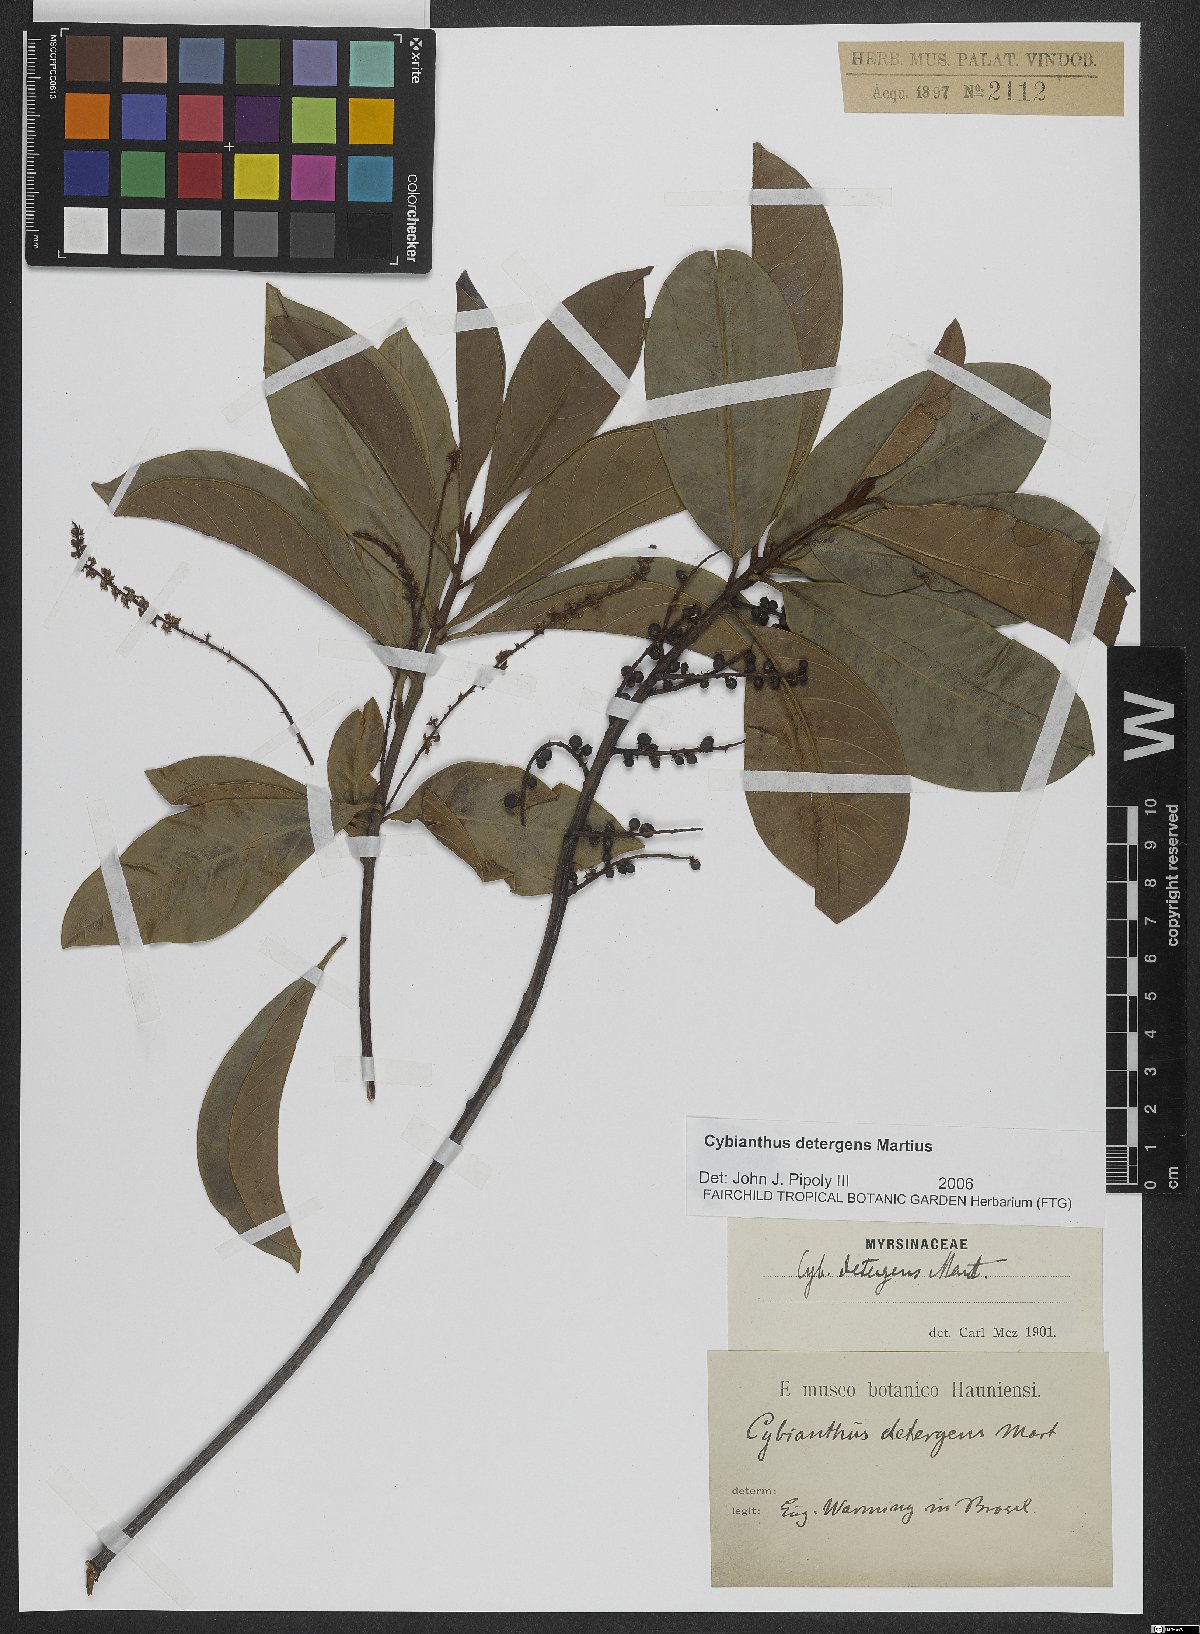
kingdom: Plantae
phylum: Tracheophyta
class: Magnoliopsida
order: Ericales
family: Primulaceae
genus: Cybianthus
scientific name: Cybianthus detergens
